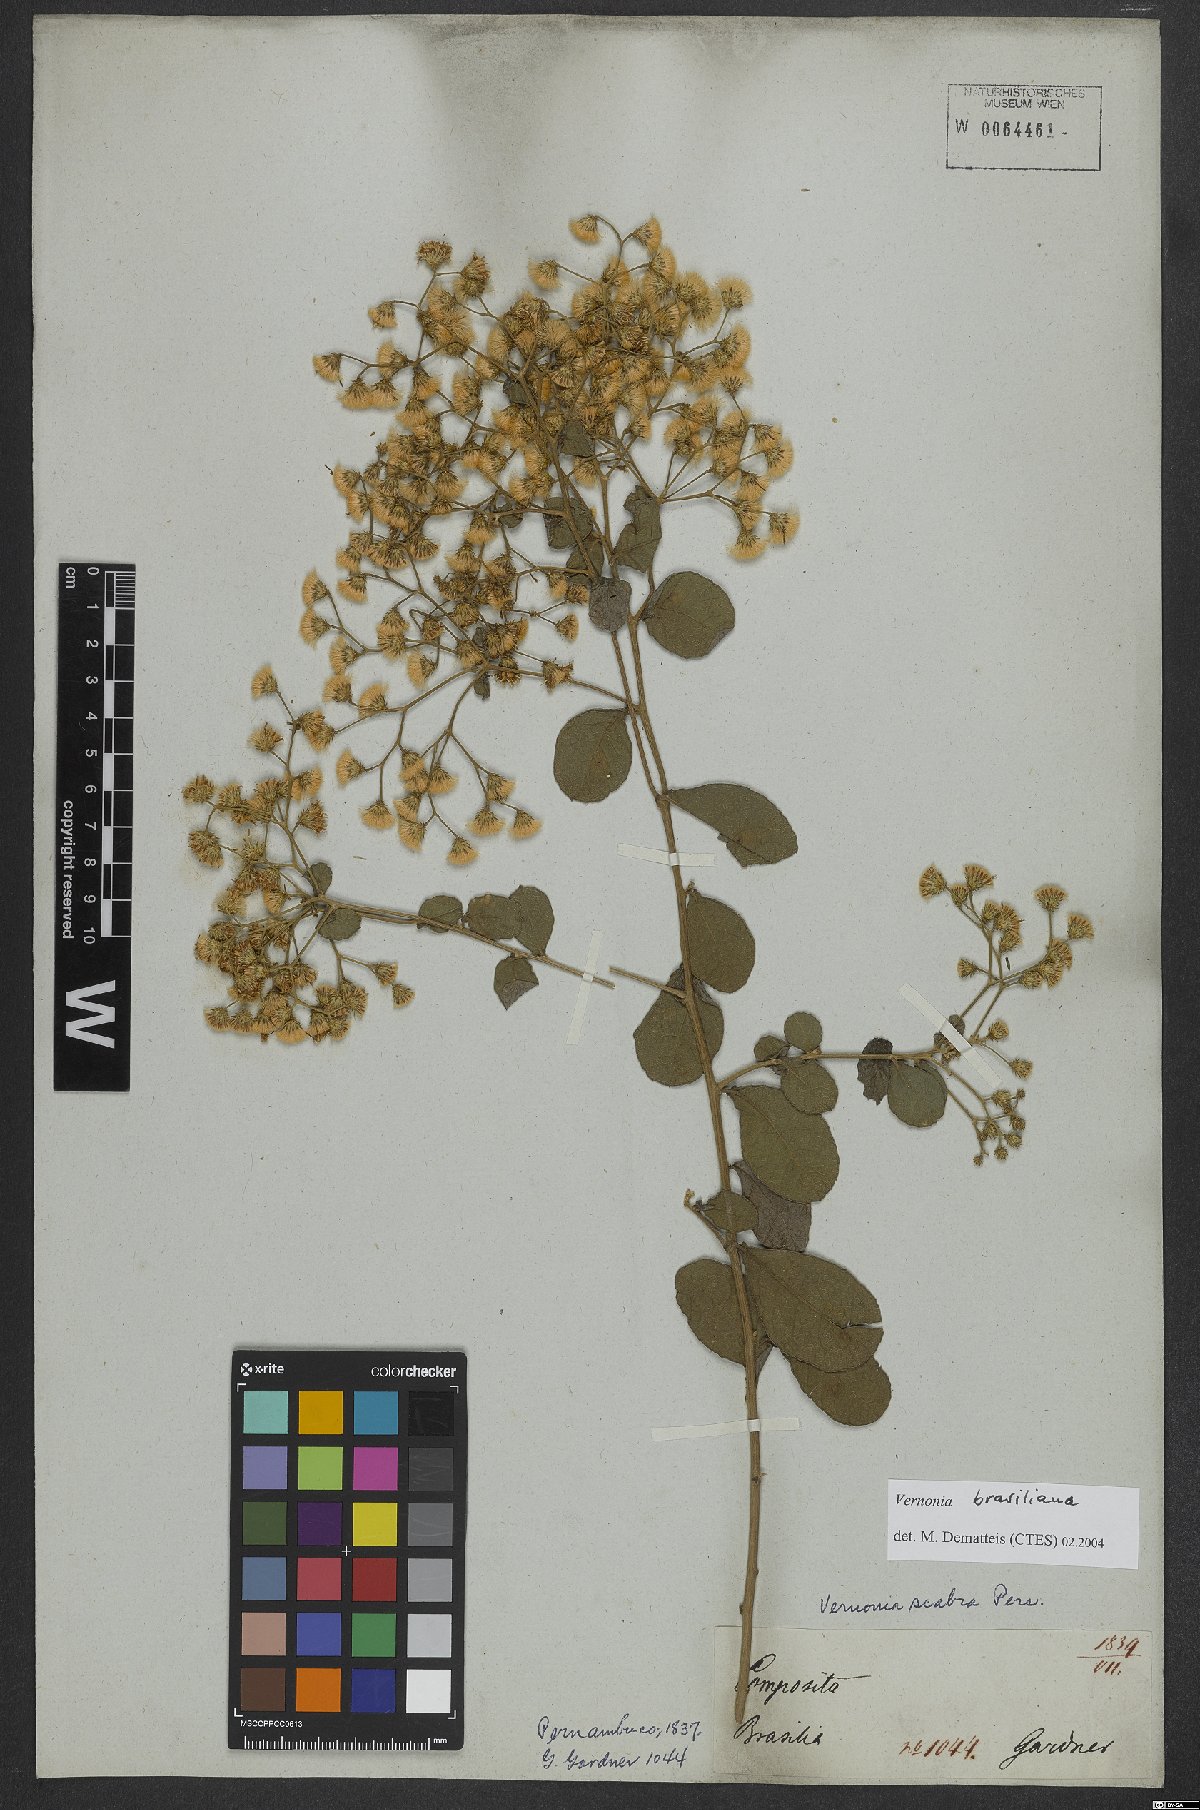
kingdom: Plantae
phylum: Tracheophyta
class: Magnoliopsida
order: Asterales
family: Asteraceae
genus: Vernonanthura
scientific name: Vernonanthura brasiliana
